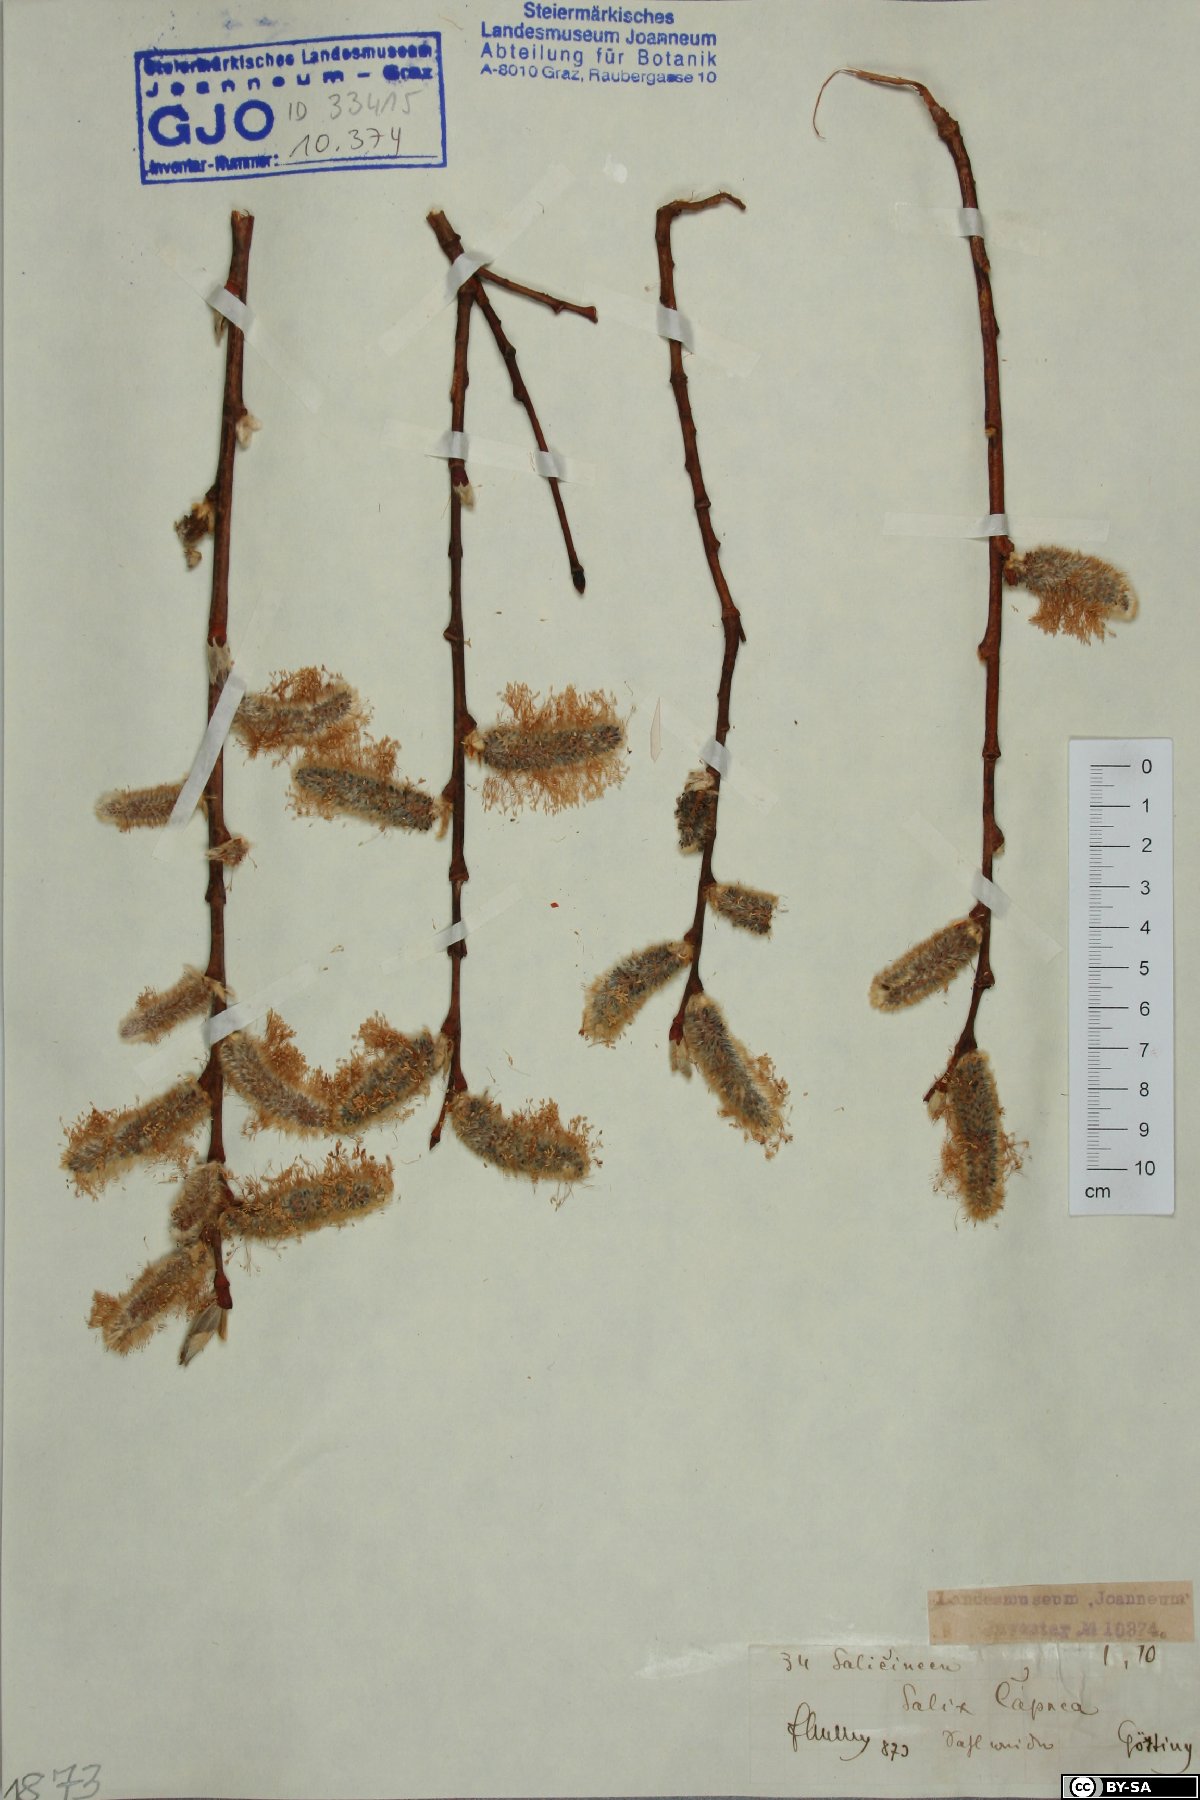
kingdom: Plantae
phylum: Tracheophyta
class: Magnoliopsida
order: Malpighiales
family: Salicaceae
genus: Salix
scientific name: Salix caprea
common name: Goat willow
